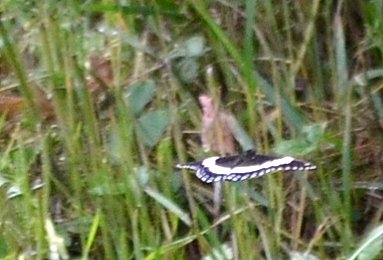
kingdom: Animalia
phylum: Arthropoda
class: Insecta
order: Lepidoptera
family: Nymphalidae
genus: Limenitis
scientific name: Limenitis arthemis
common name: Red-spotted Admiral
